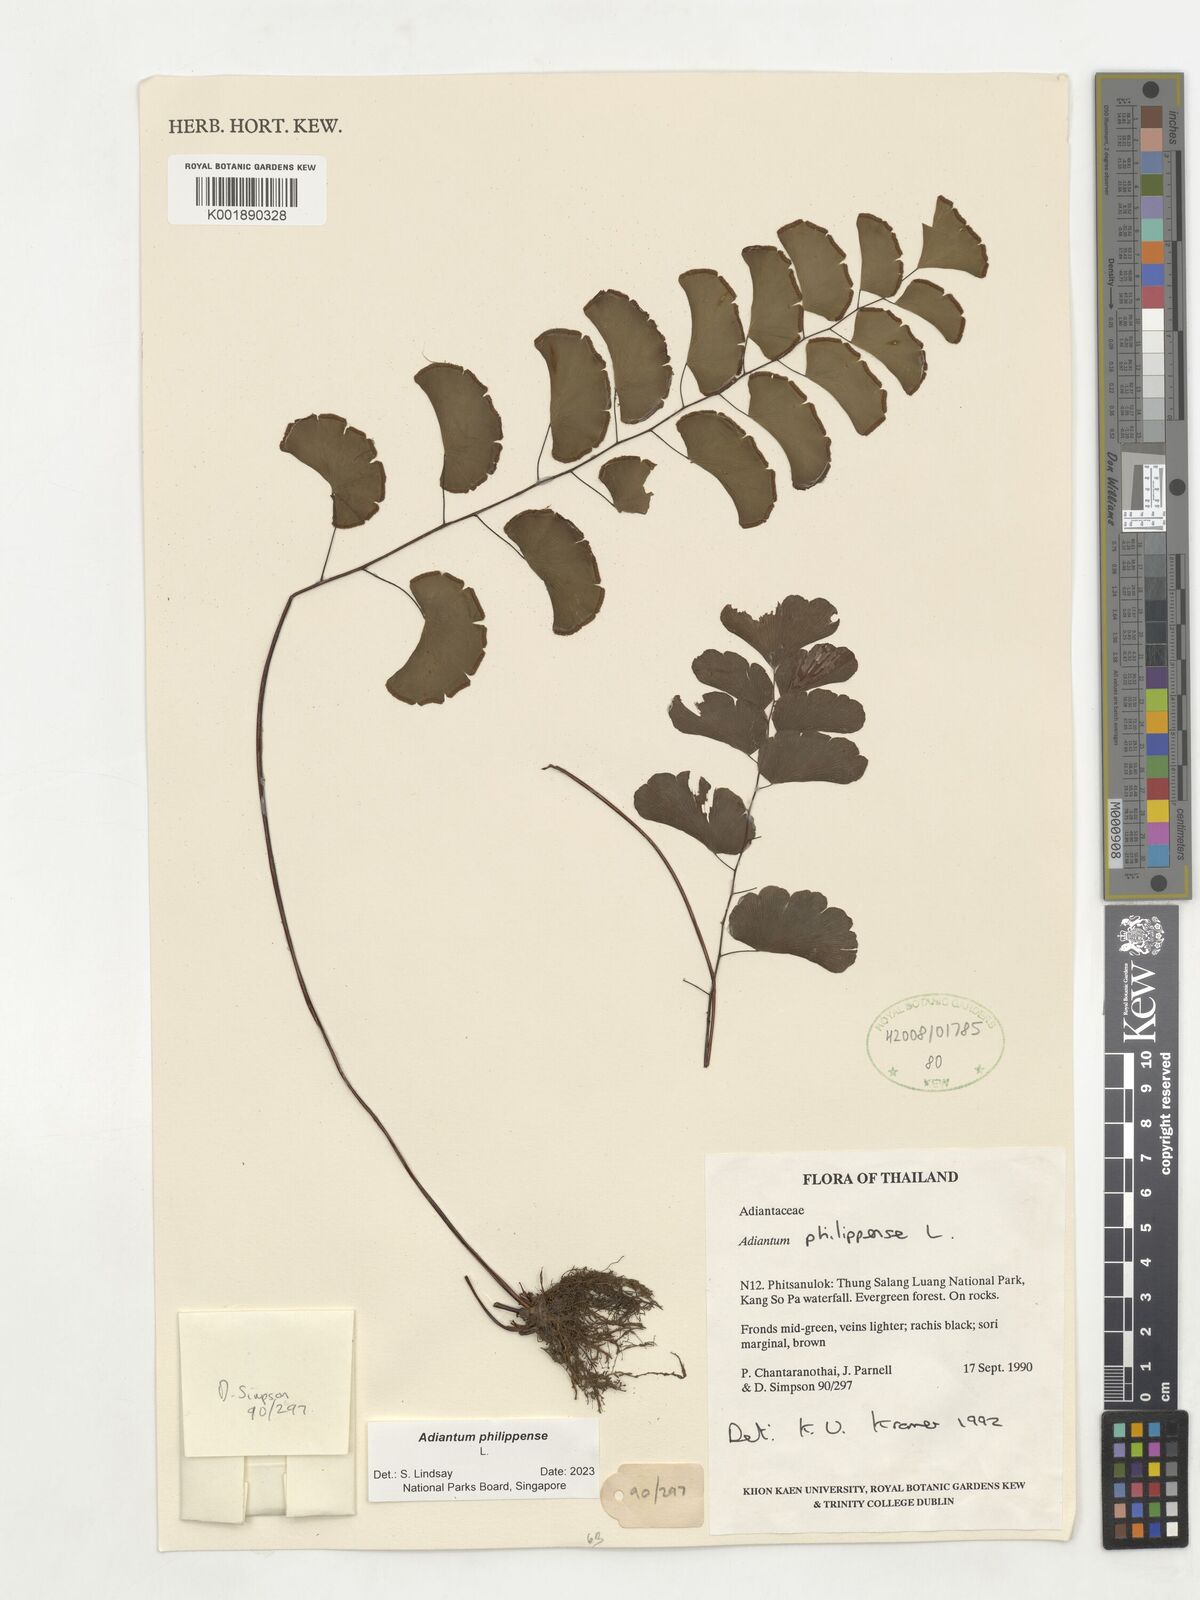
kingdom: Plantae
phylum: Tracheophyta
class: Polypodiopsida
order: Polypodiales
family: Pteridaceae
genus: Adiantum
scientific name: Adiantum philippense
